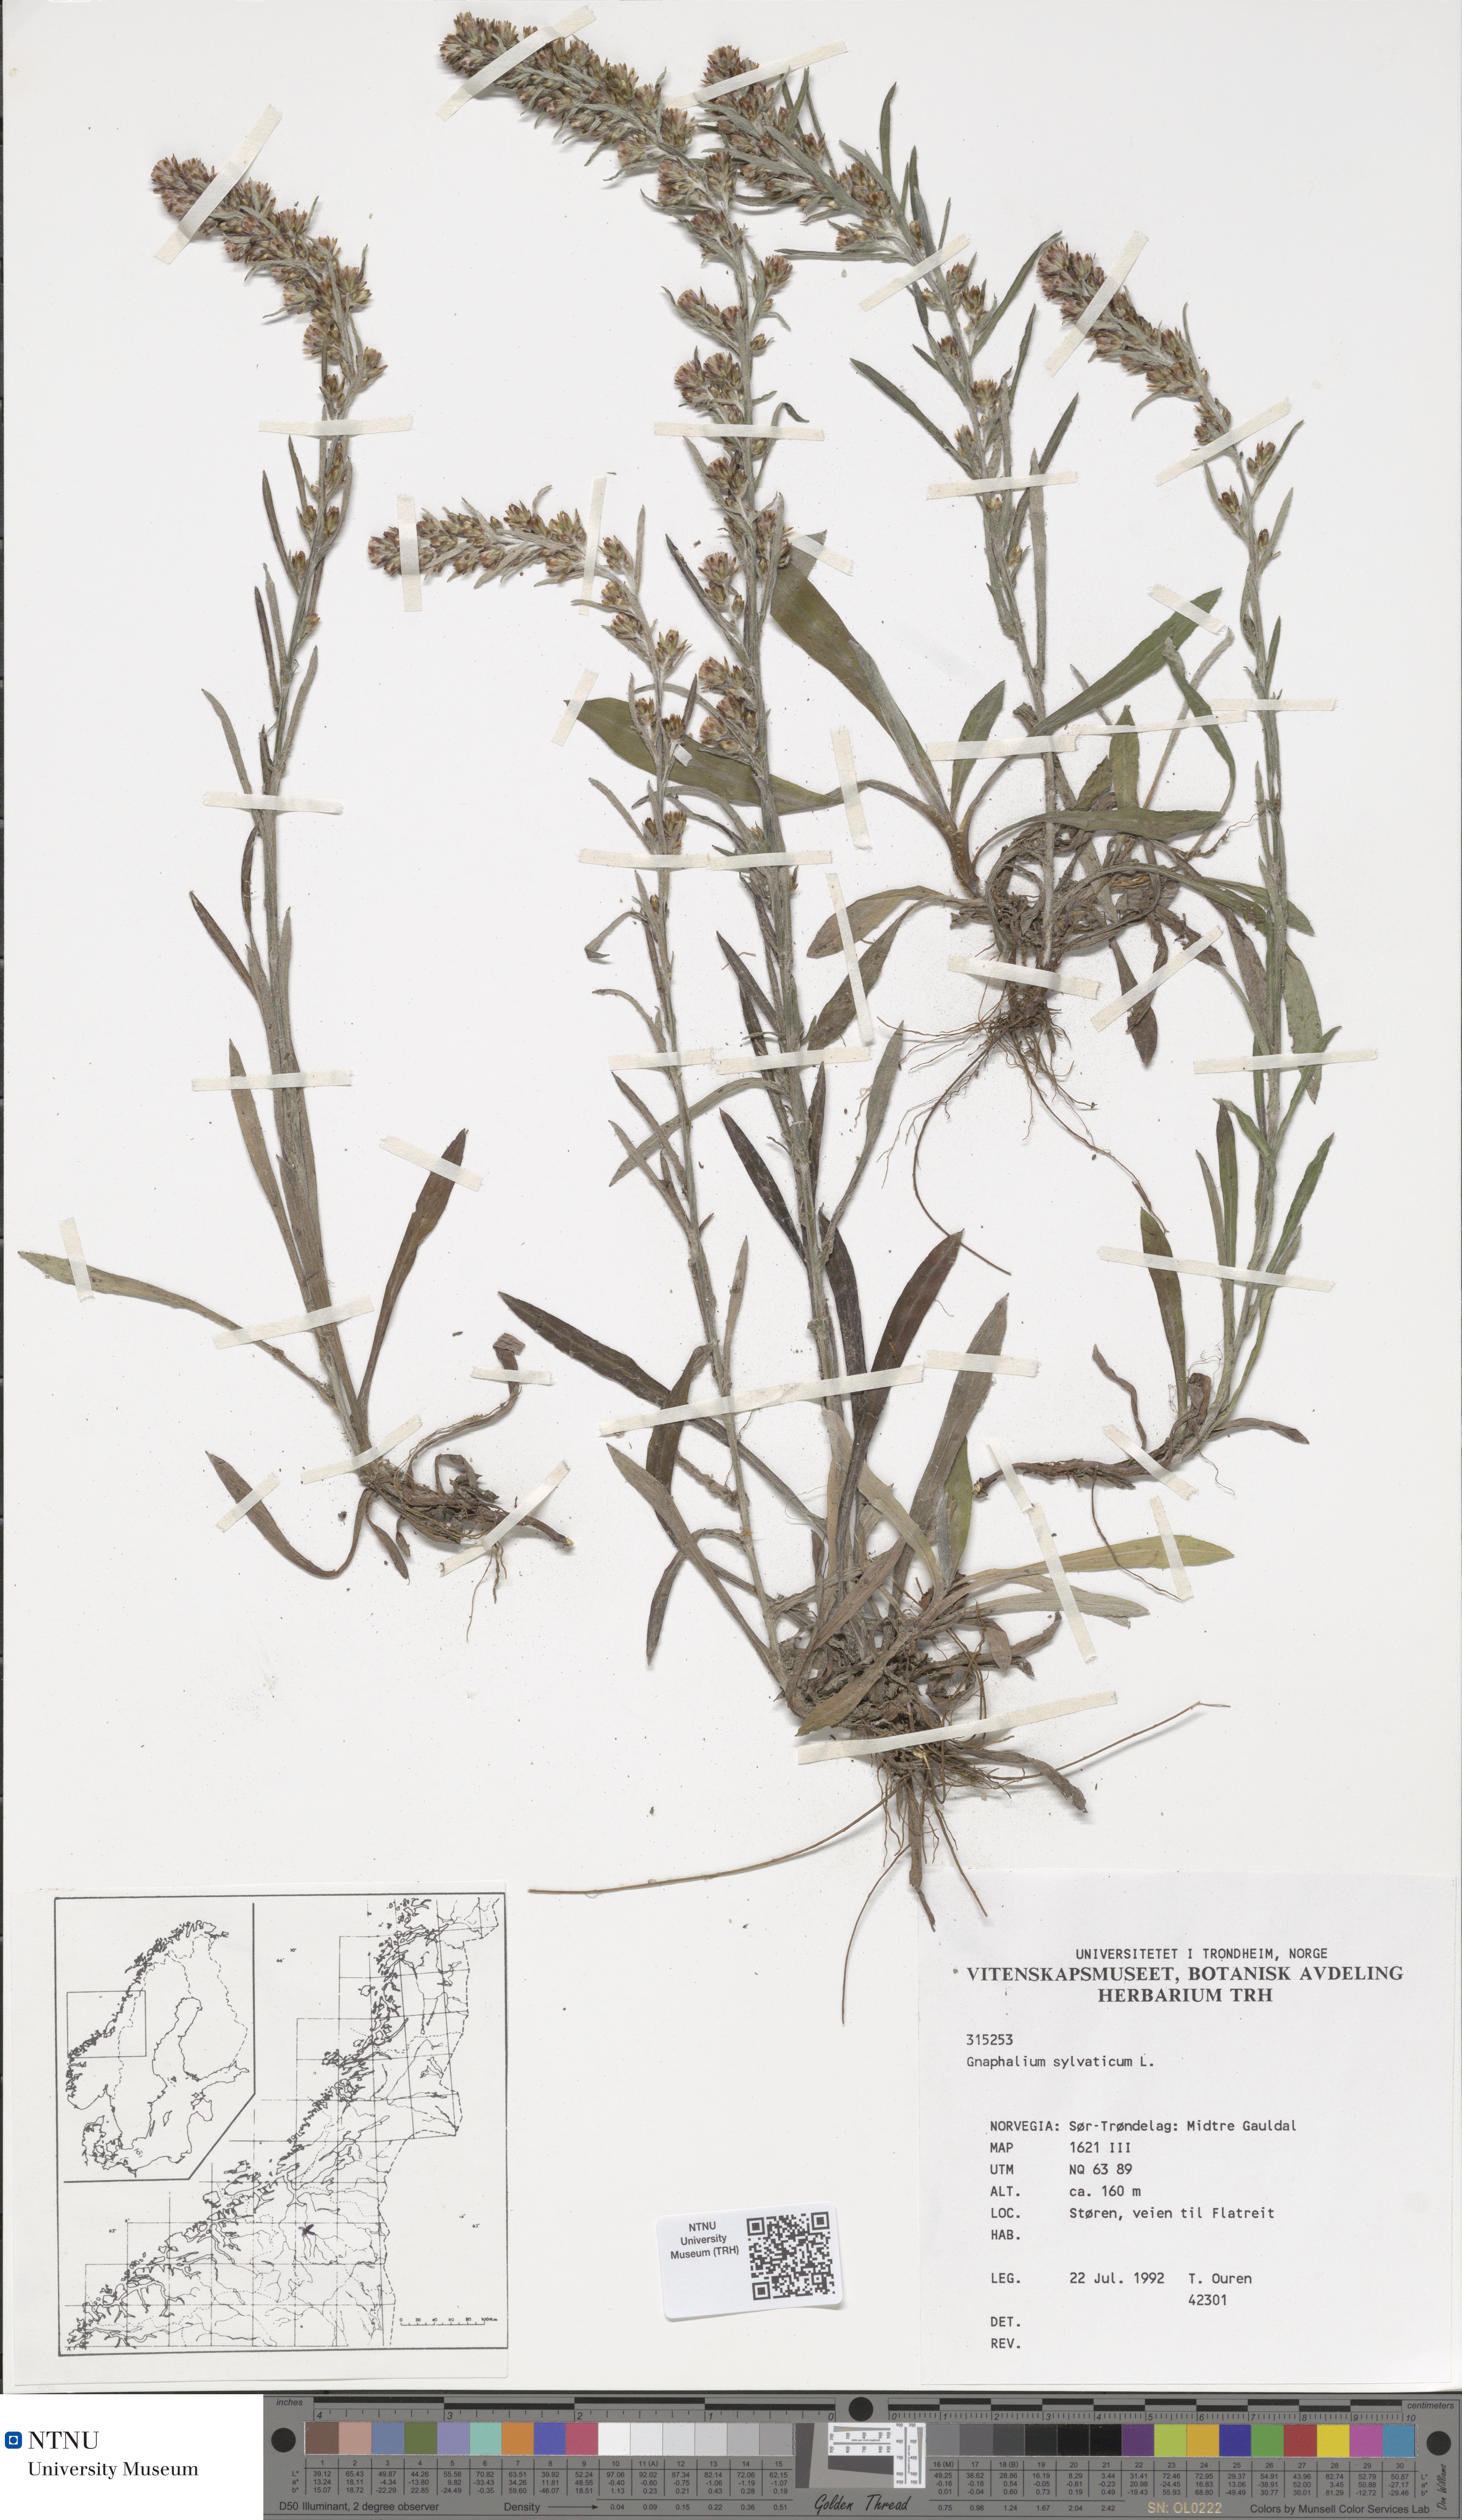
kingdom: Plantae
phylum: Tracheophyta
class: Magnoliopsida
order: Asterales
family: Asteraceae
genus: Omalotheca
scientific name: Omalotheca sylvatica
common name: Heath cudweed
